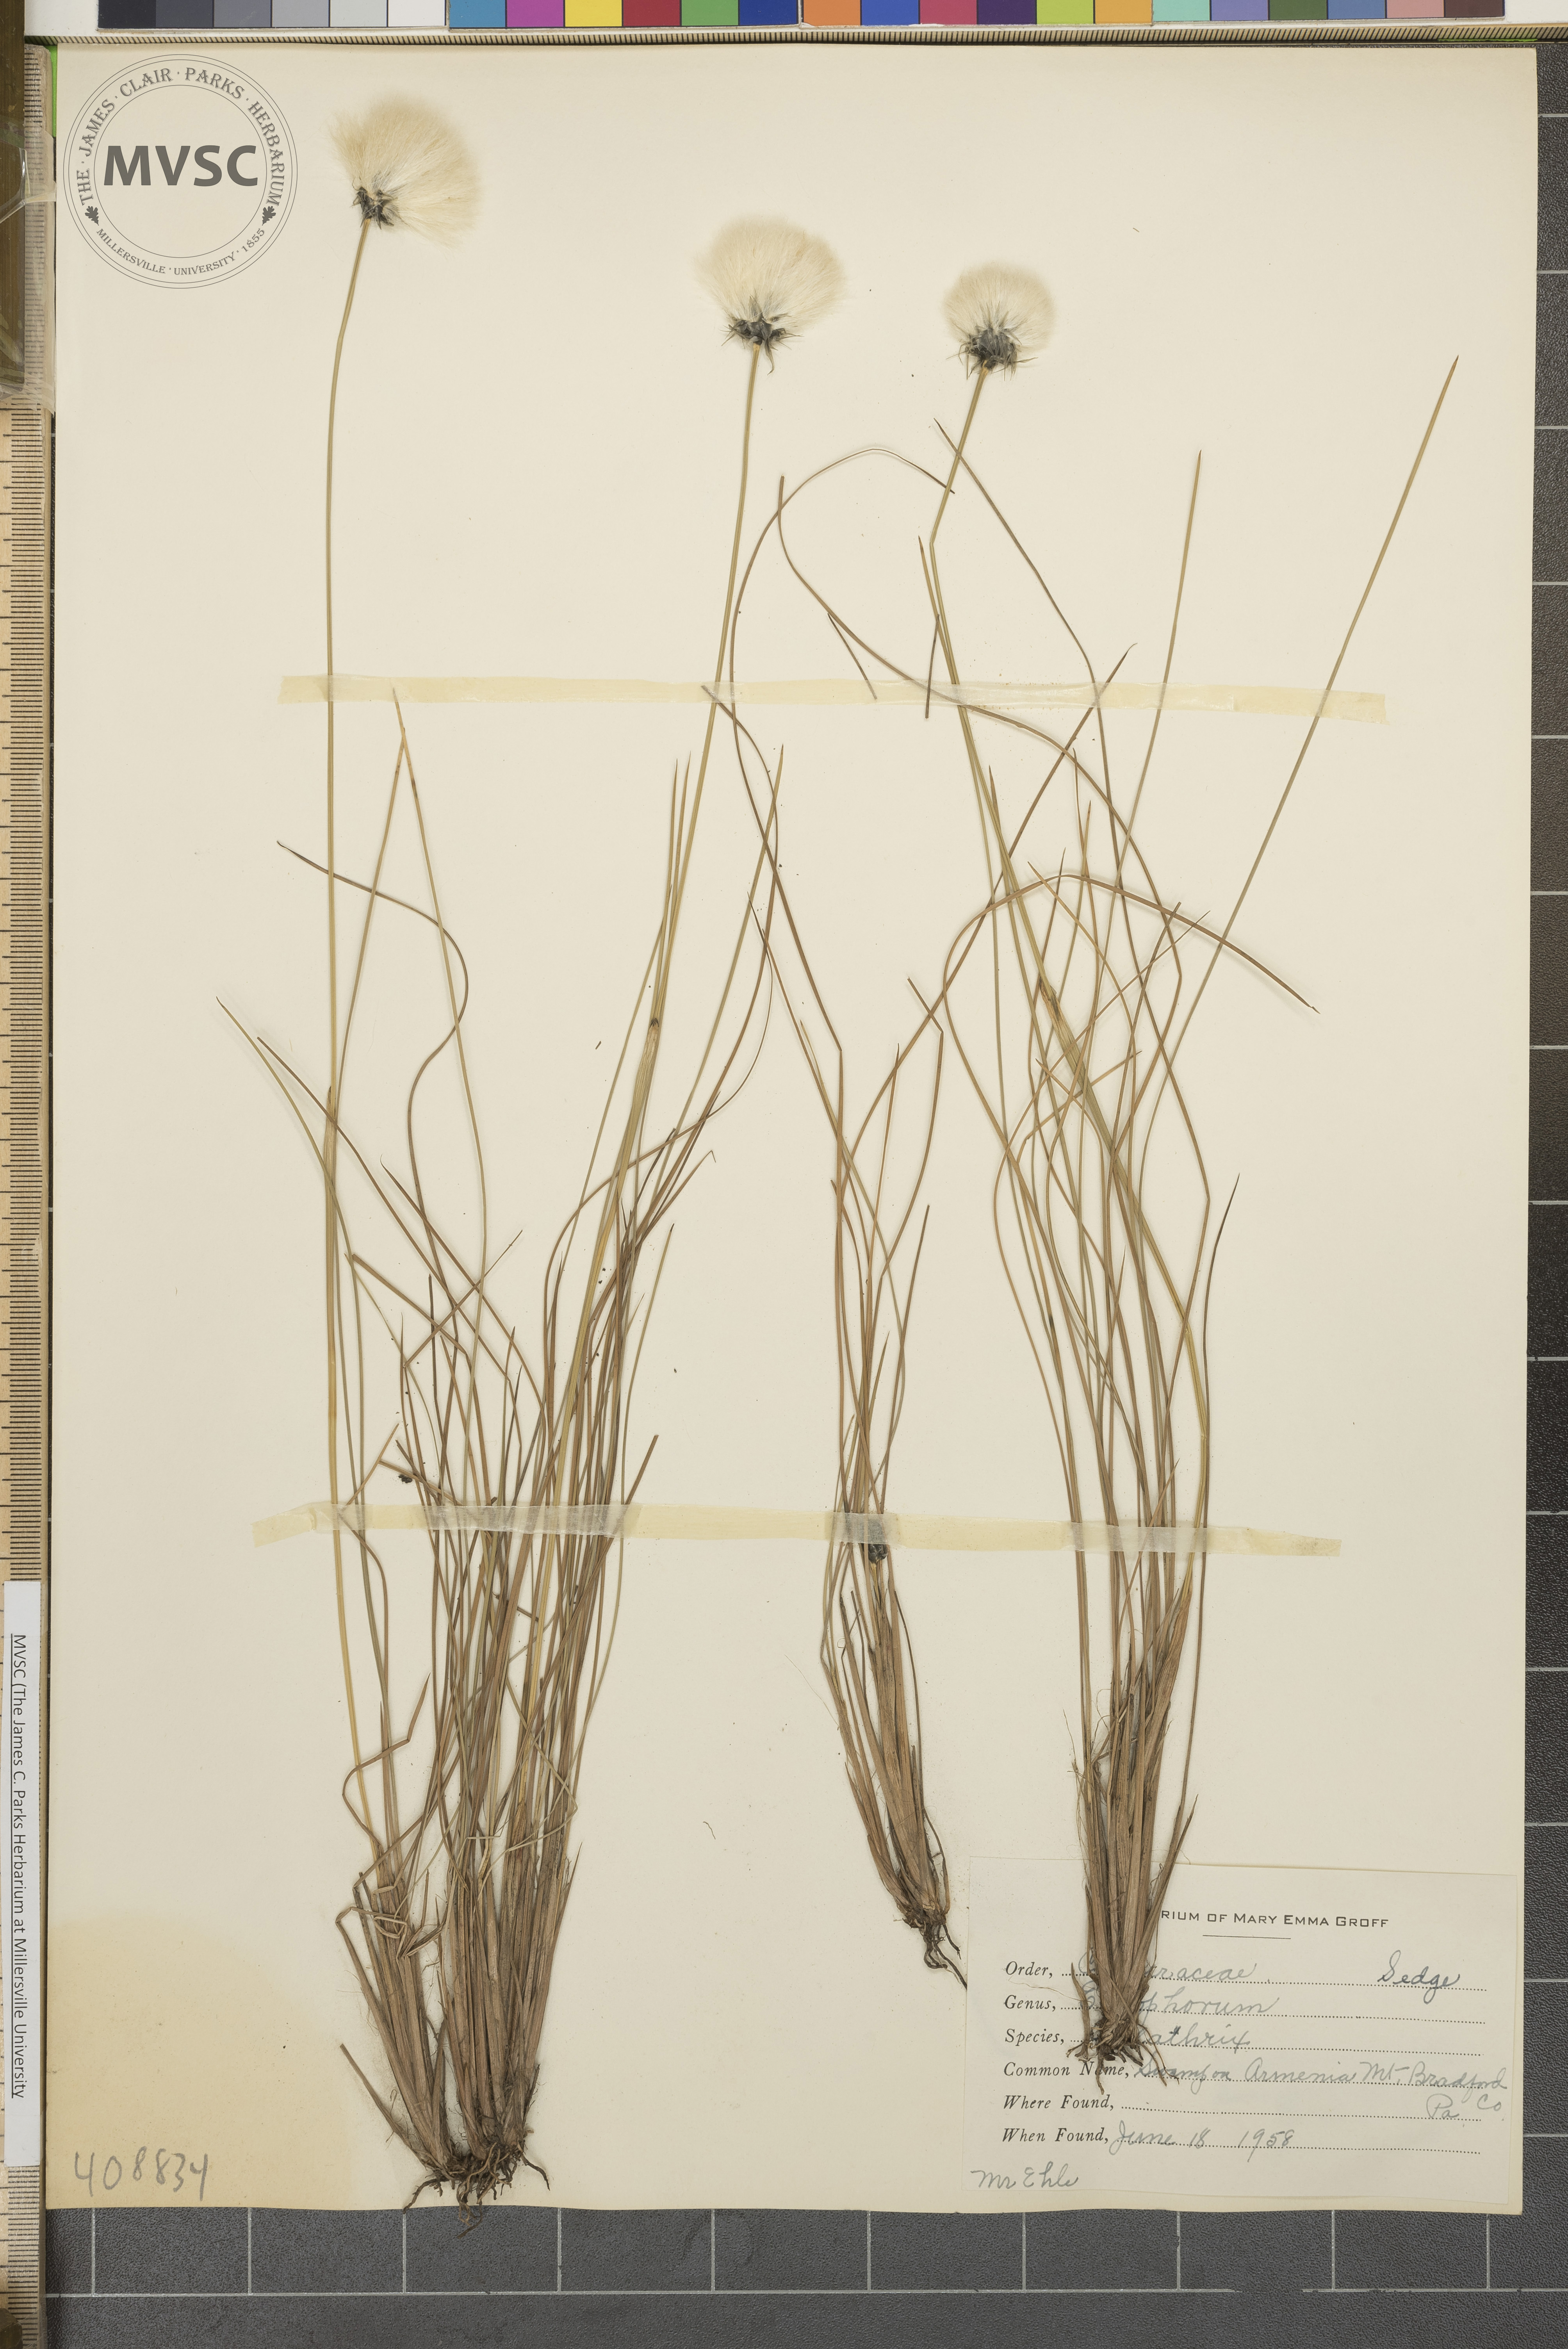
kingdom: Plantae
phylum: Tracheophyta
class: Liliopsida
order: Poales
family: Cyperaceae
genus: Eriophorum
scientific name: Eriophorum vaginatum
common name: Hare's-tail cottongrass
